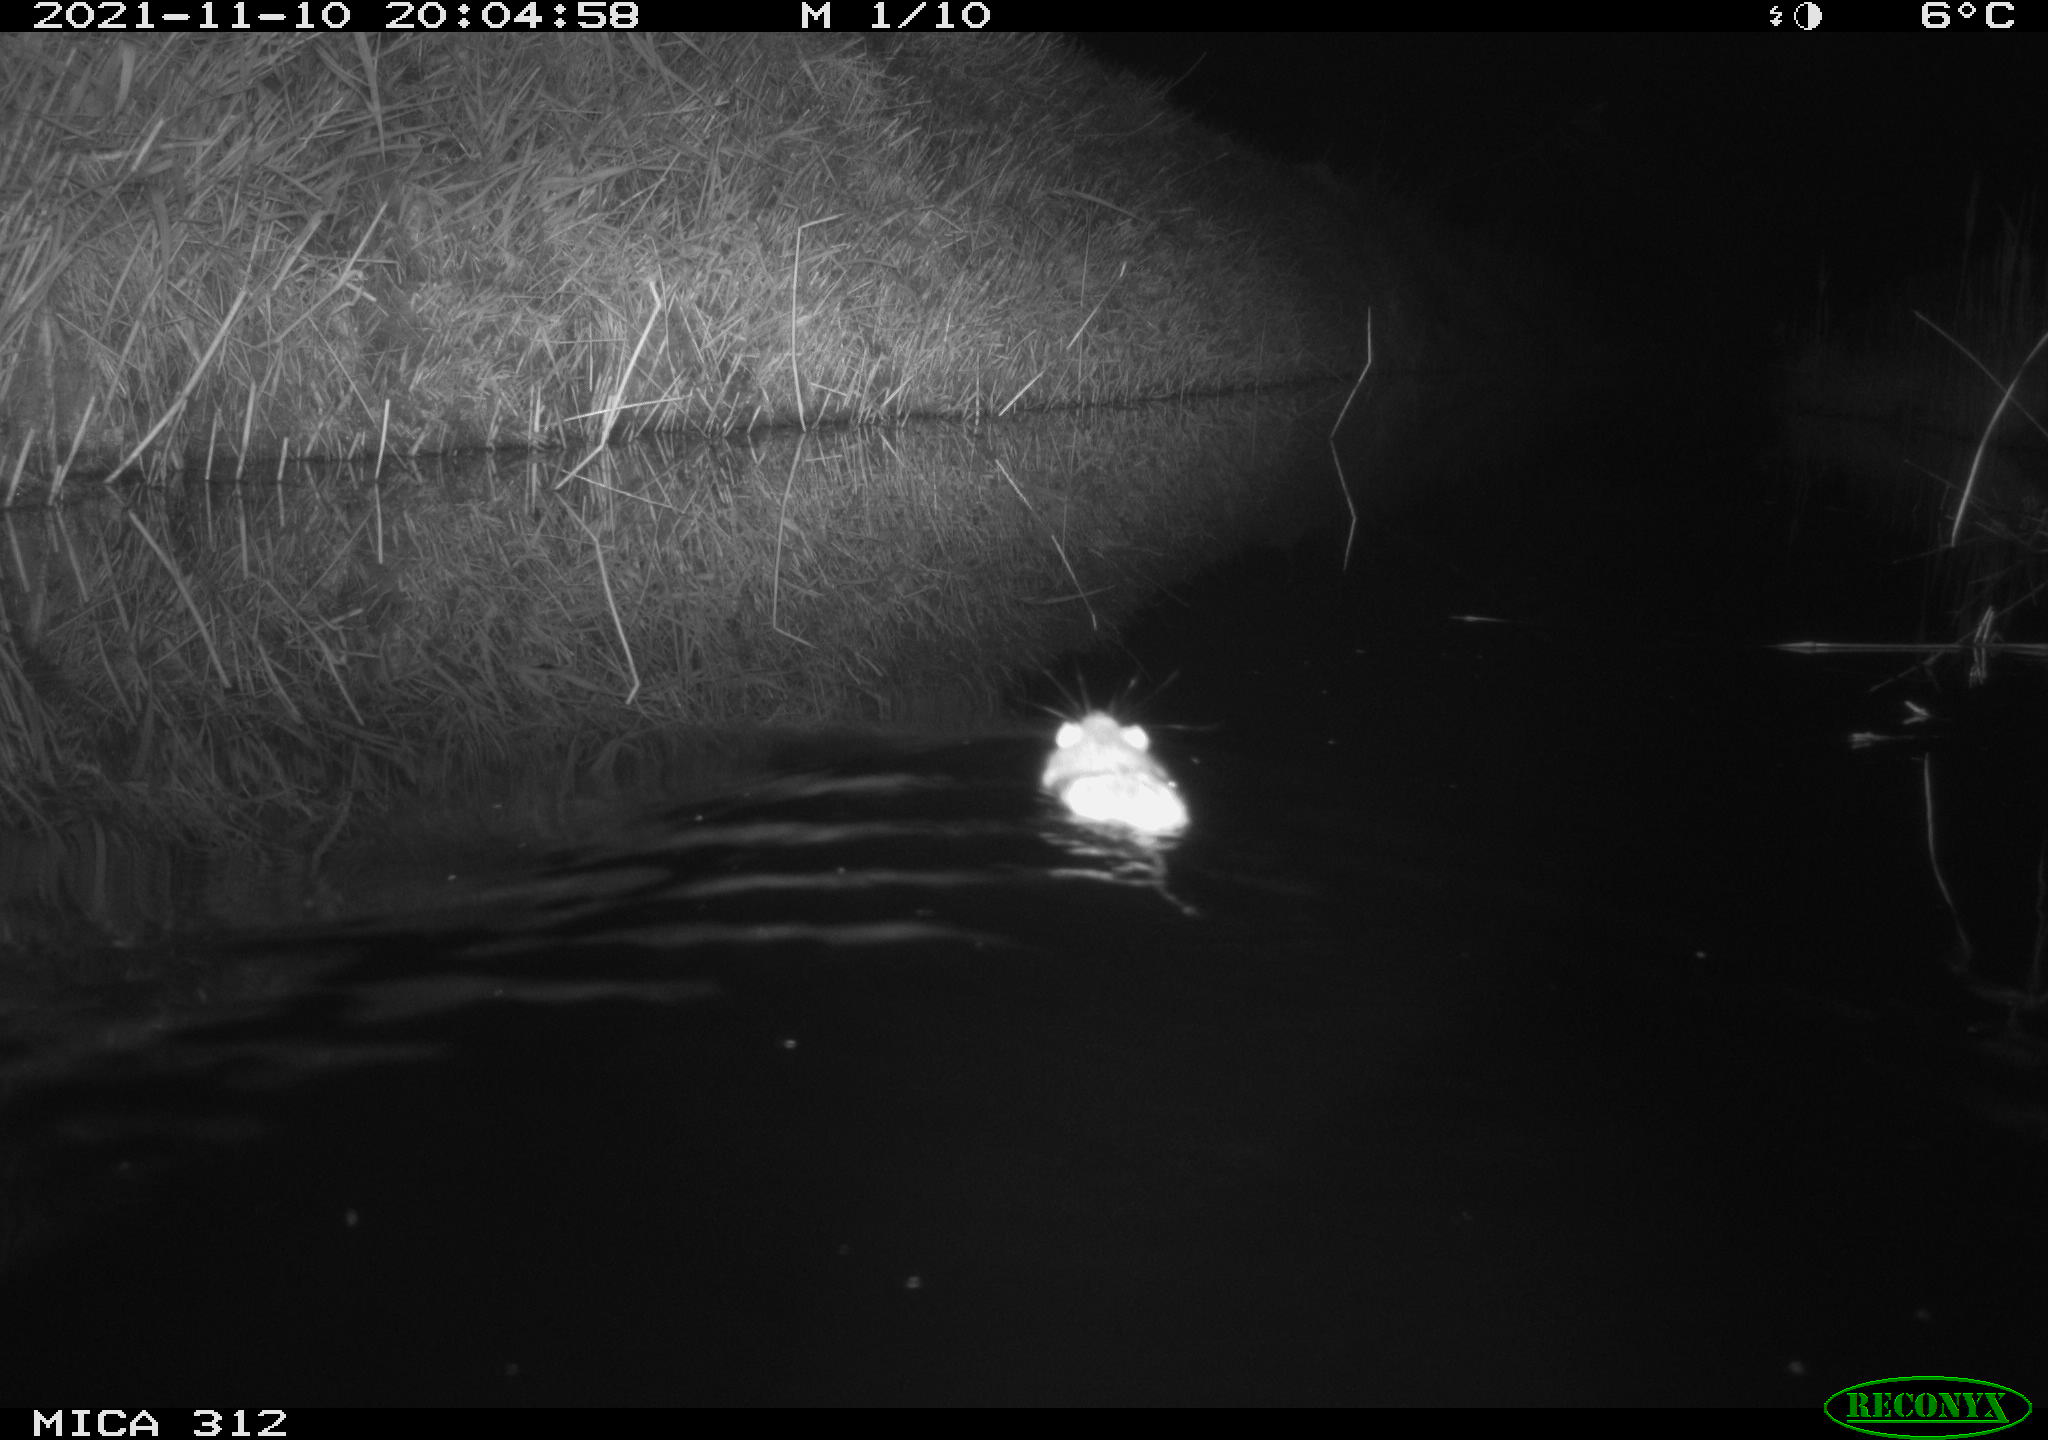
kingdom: Animalia
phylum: Chordata
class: Mammalia
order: Rodentia
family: Muridae
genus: Rattus
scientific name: Rattus norvegicus
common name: Brown rat
